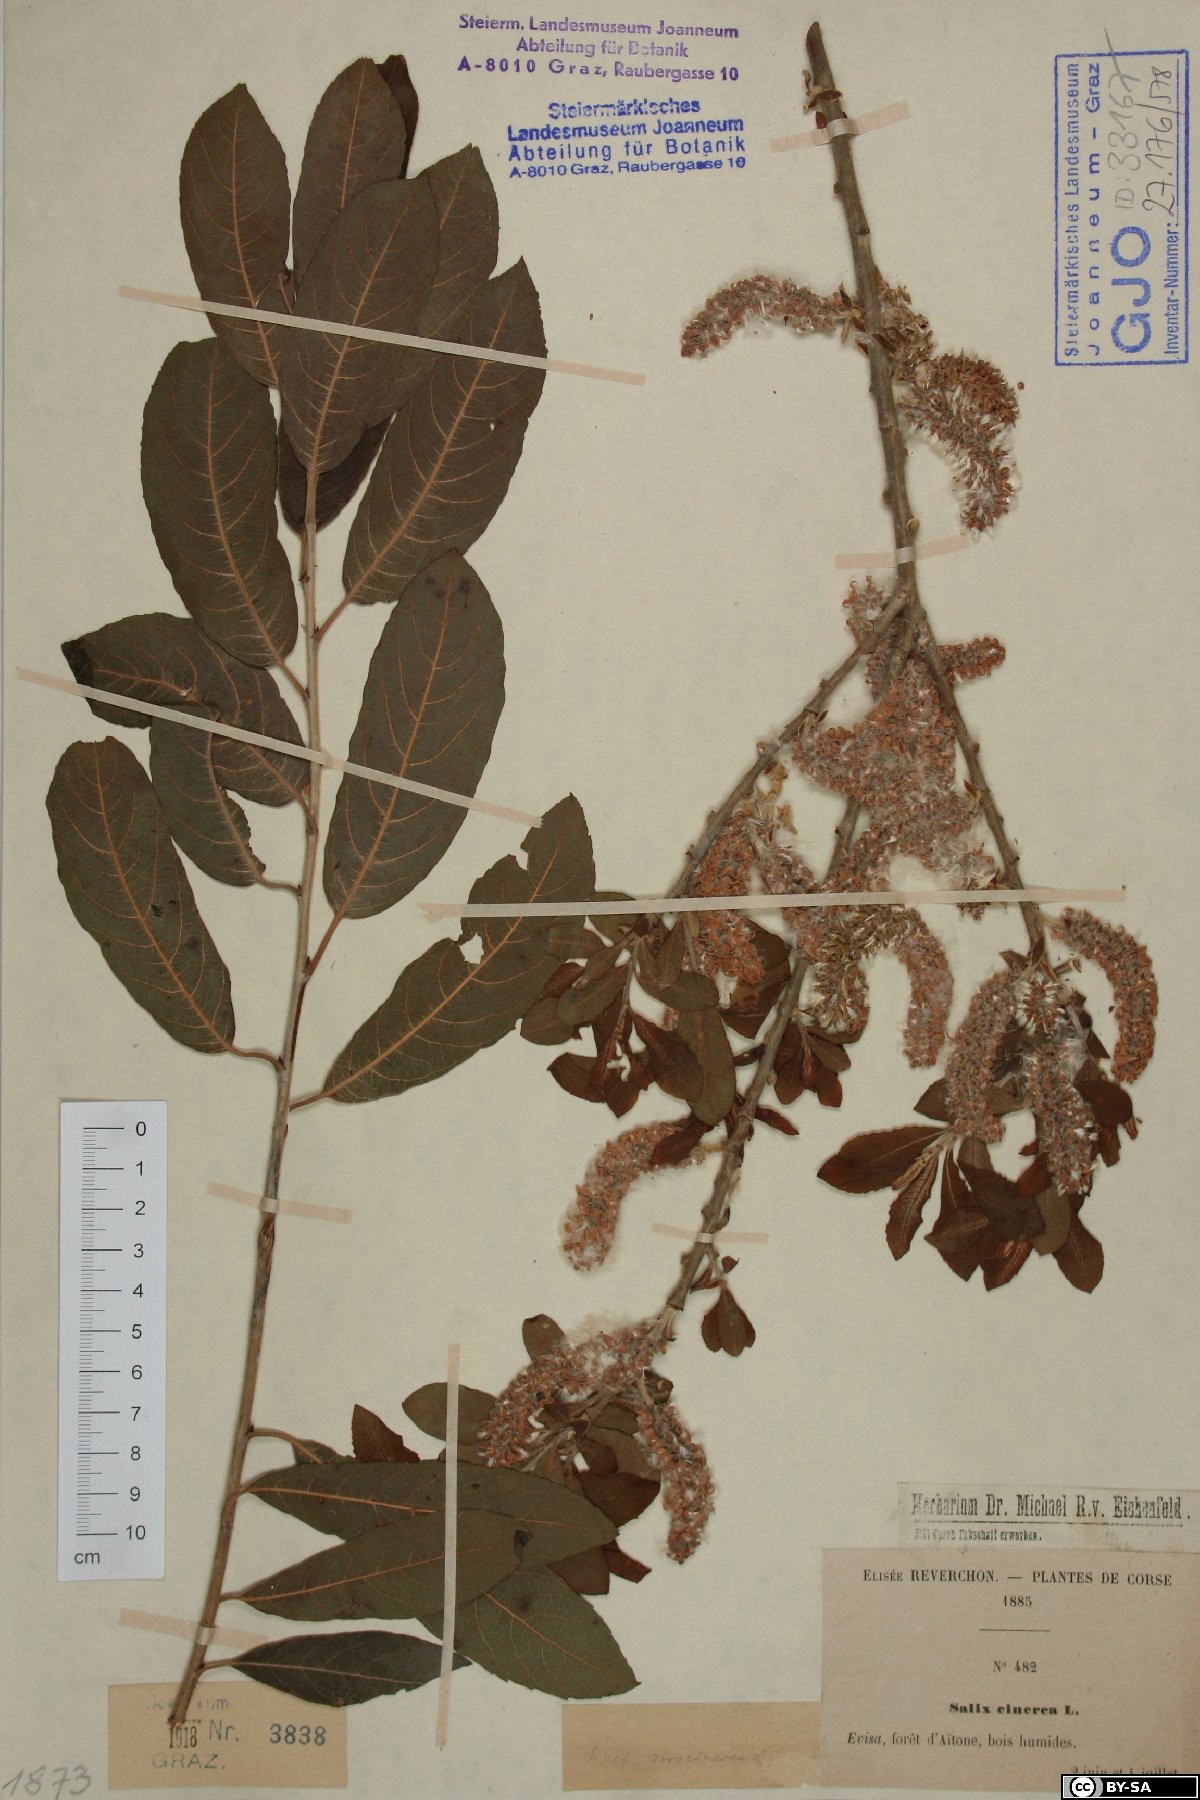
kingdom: Plantae
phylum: Tracheophyta
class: Magnoliopsida
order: Malpighiales
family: Salicaceae
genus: Salix
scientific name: Salix atrocinerea
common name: Rusty willow
